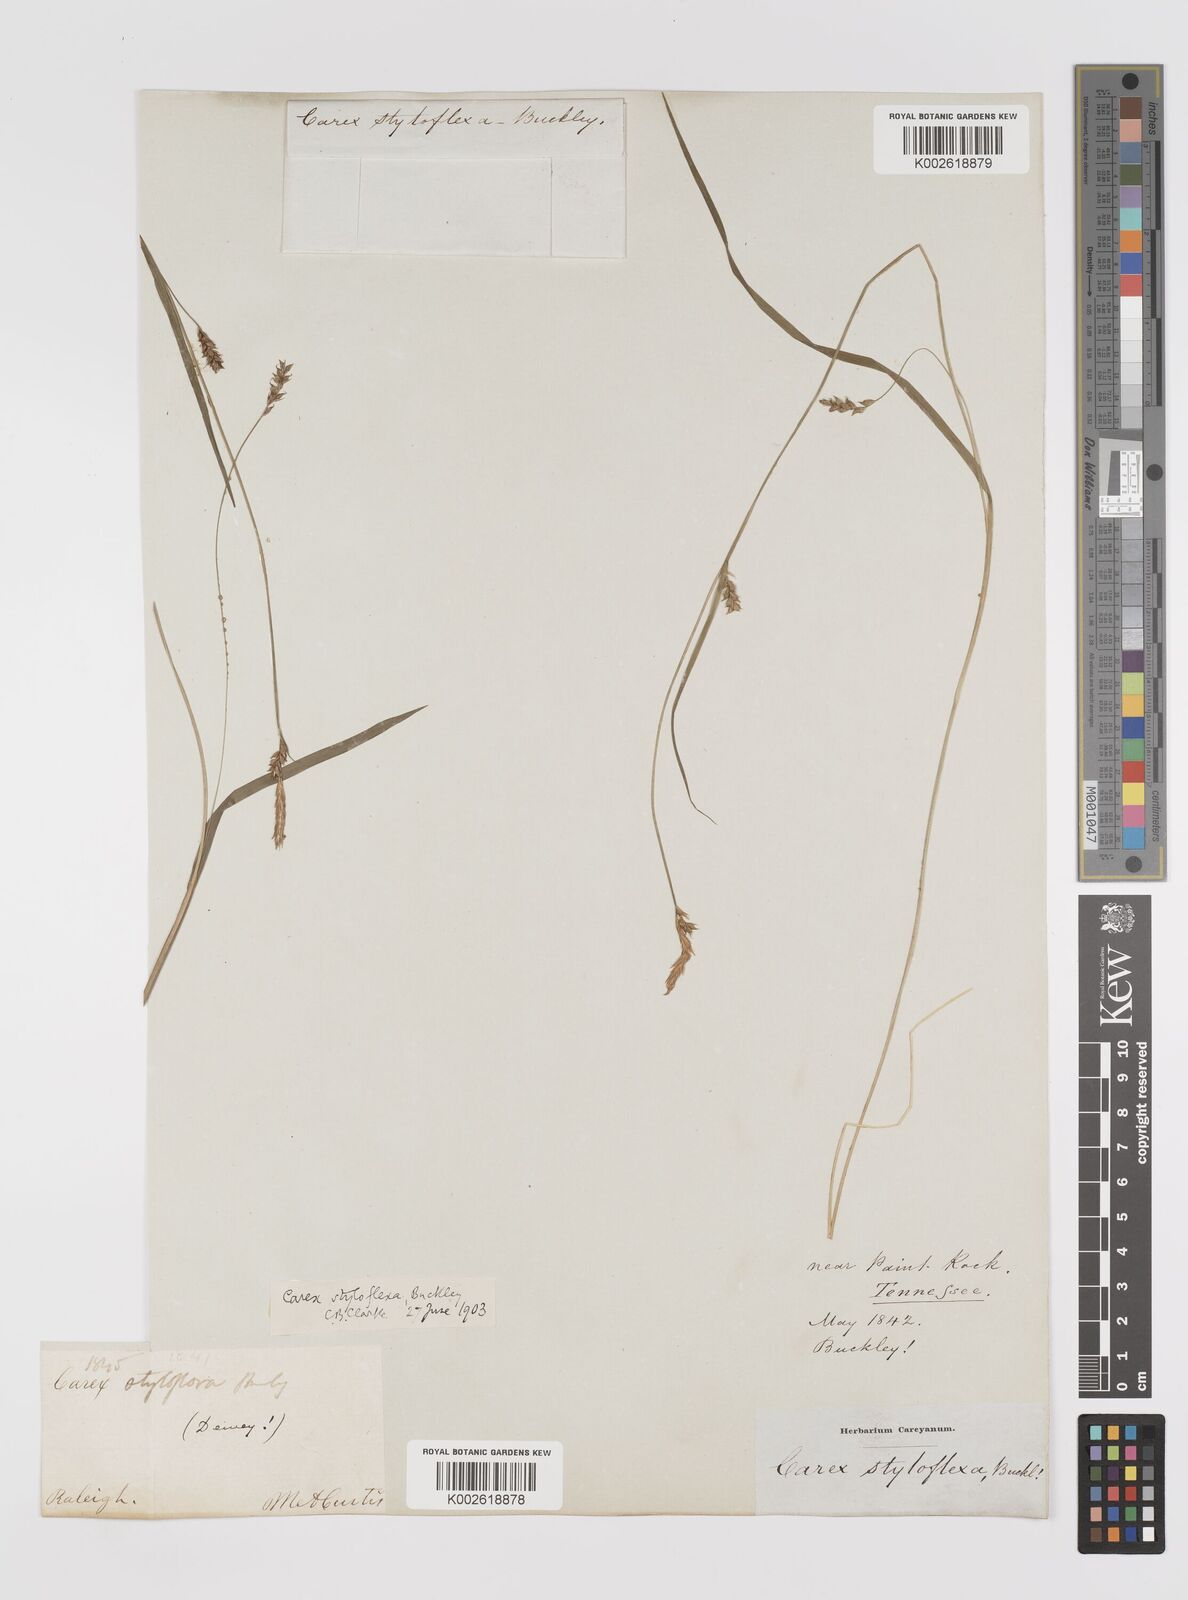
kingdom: Plantae
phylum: Tracheophyta
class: Liliopsida
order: Poales
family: Cyperaceae
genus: Carex
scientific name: Carex styloflexa
